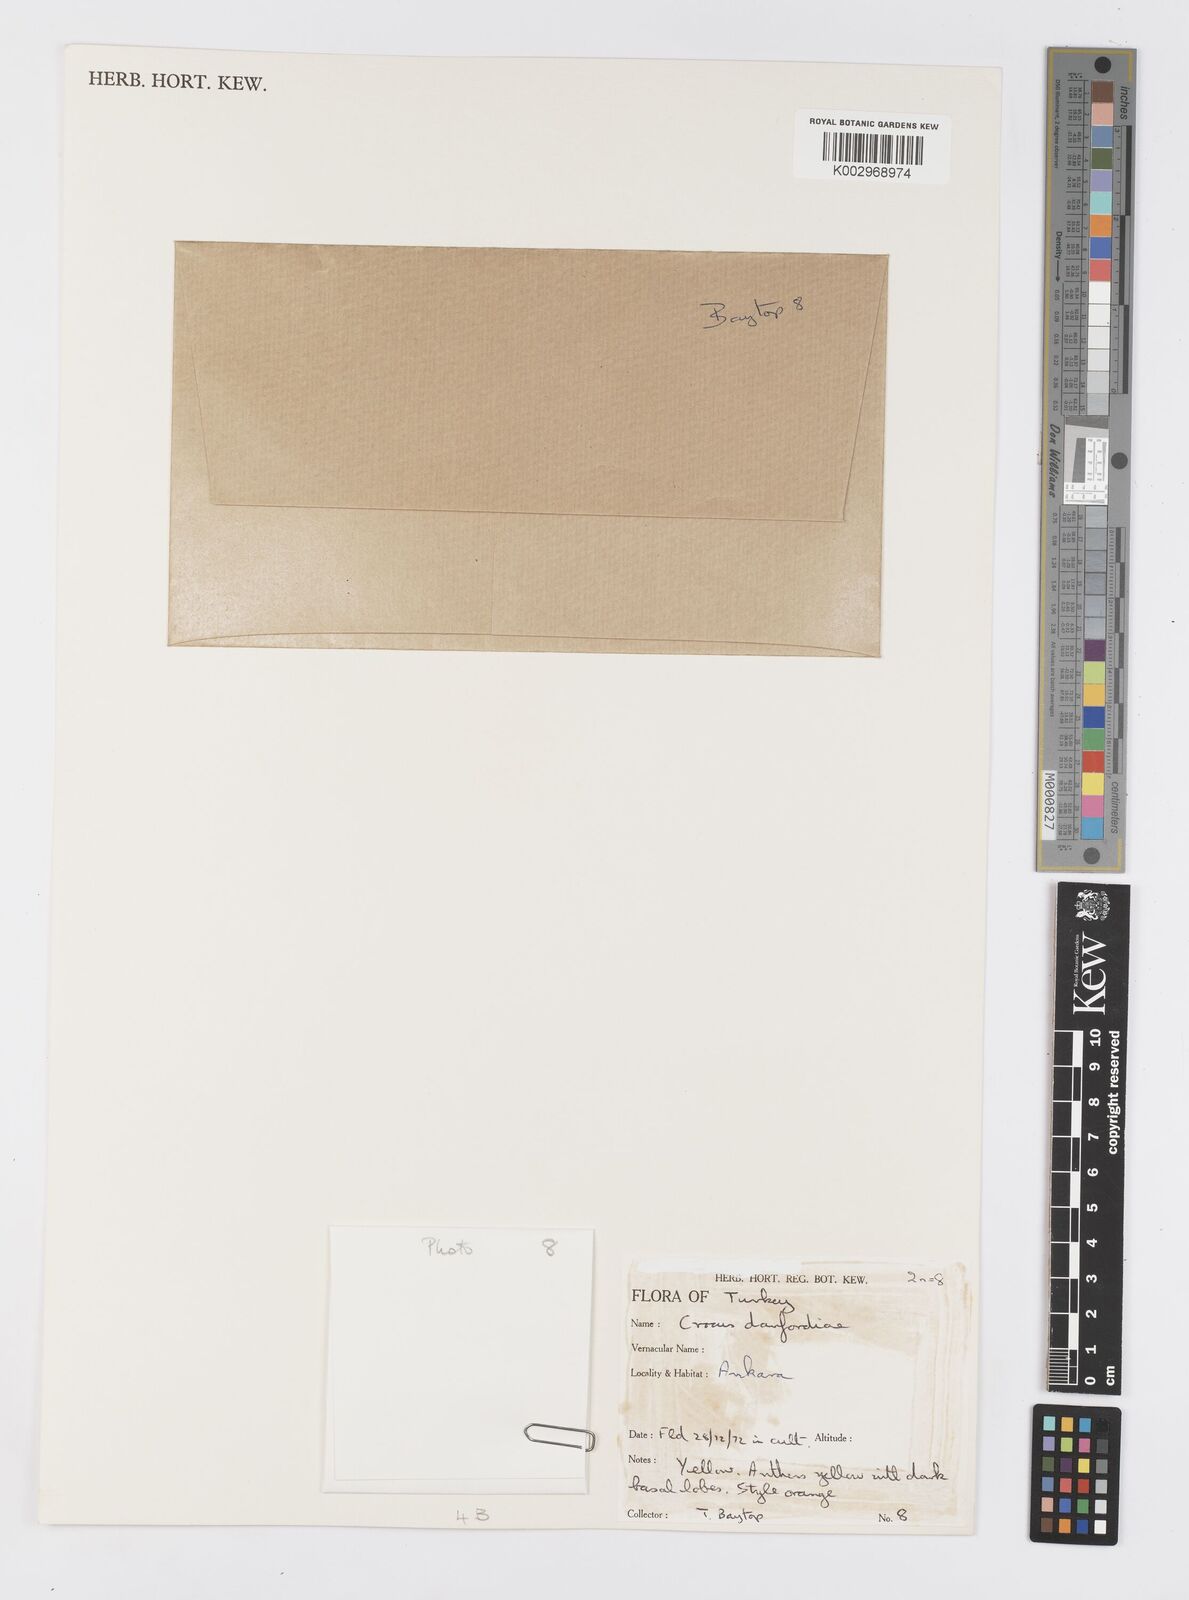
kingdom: Plantae
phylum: Tracheophyta
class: Liliopsida
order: Asparagales
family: Iridaceae
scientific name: Iridaceae
